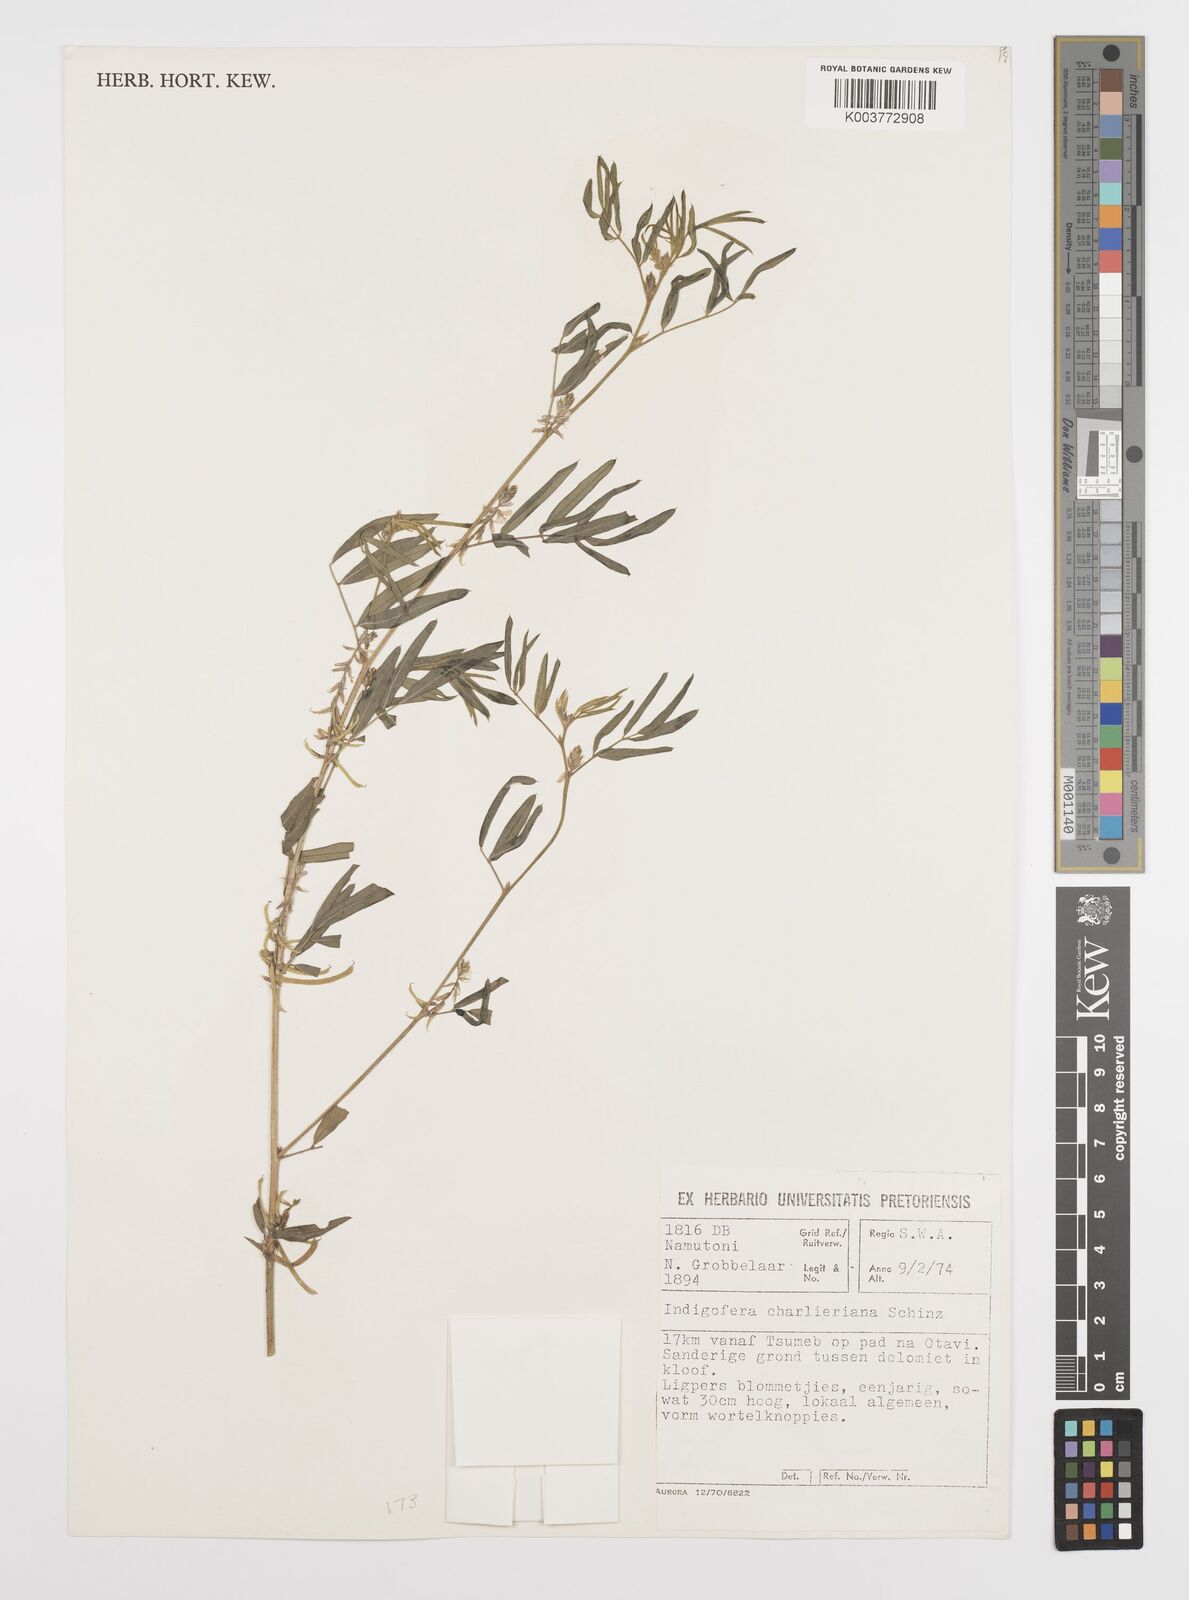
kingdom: Plantae
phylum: Tracheophyta
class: Magnoliopsida
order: Fabales
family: Fabaceae
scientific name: Fabaceae
